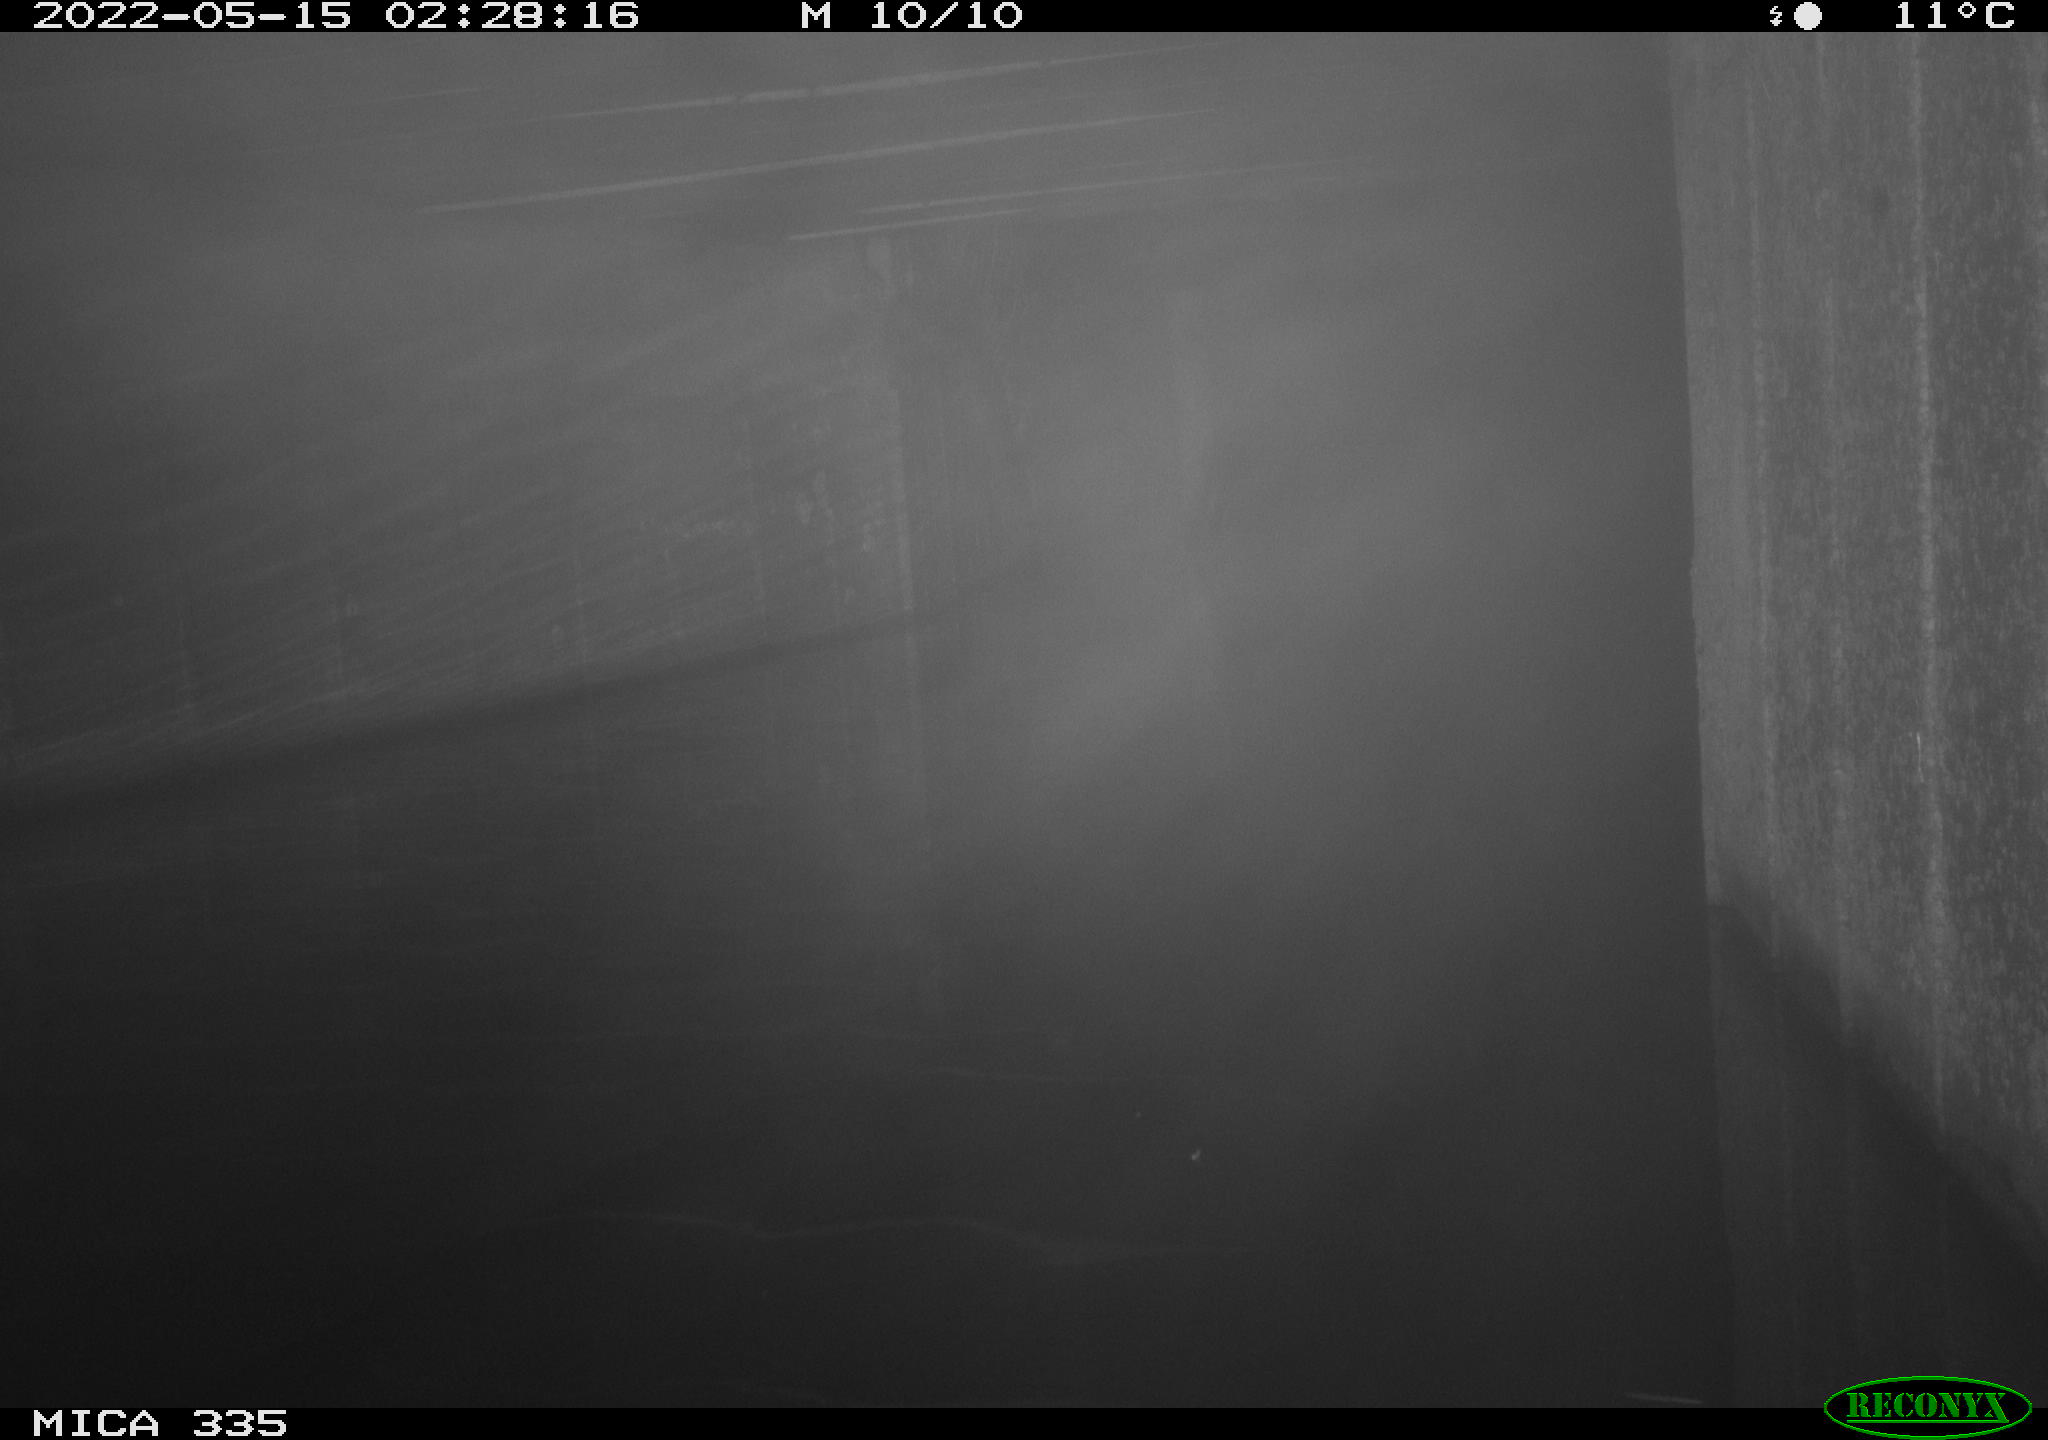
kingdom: Animalia
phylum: Chordata
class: Aves
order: Anseriformes
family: Anatidae
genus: Anas
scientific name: Anas platyrhynchos
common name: Mallard
